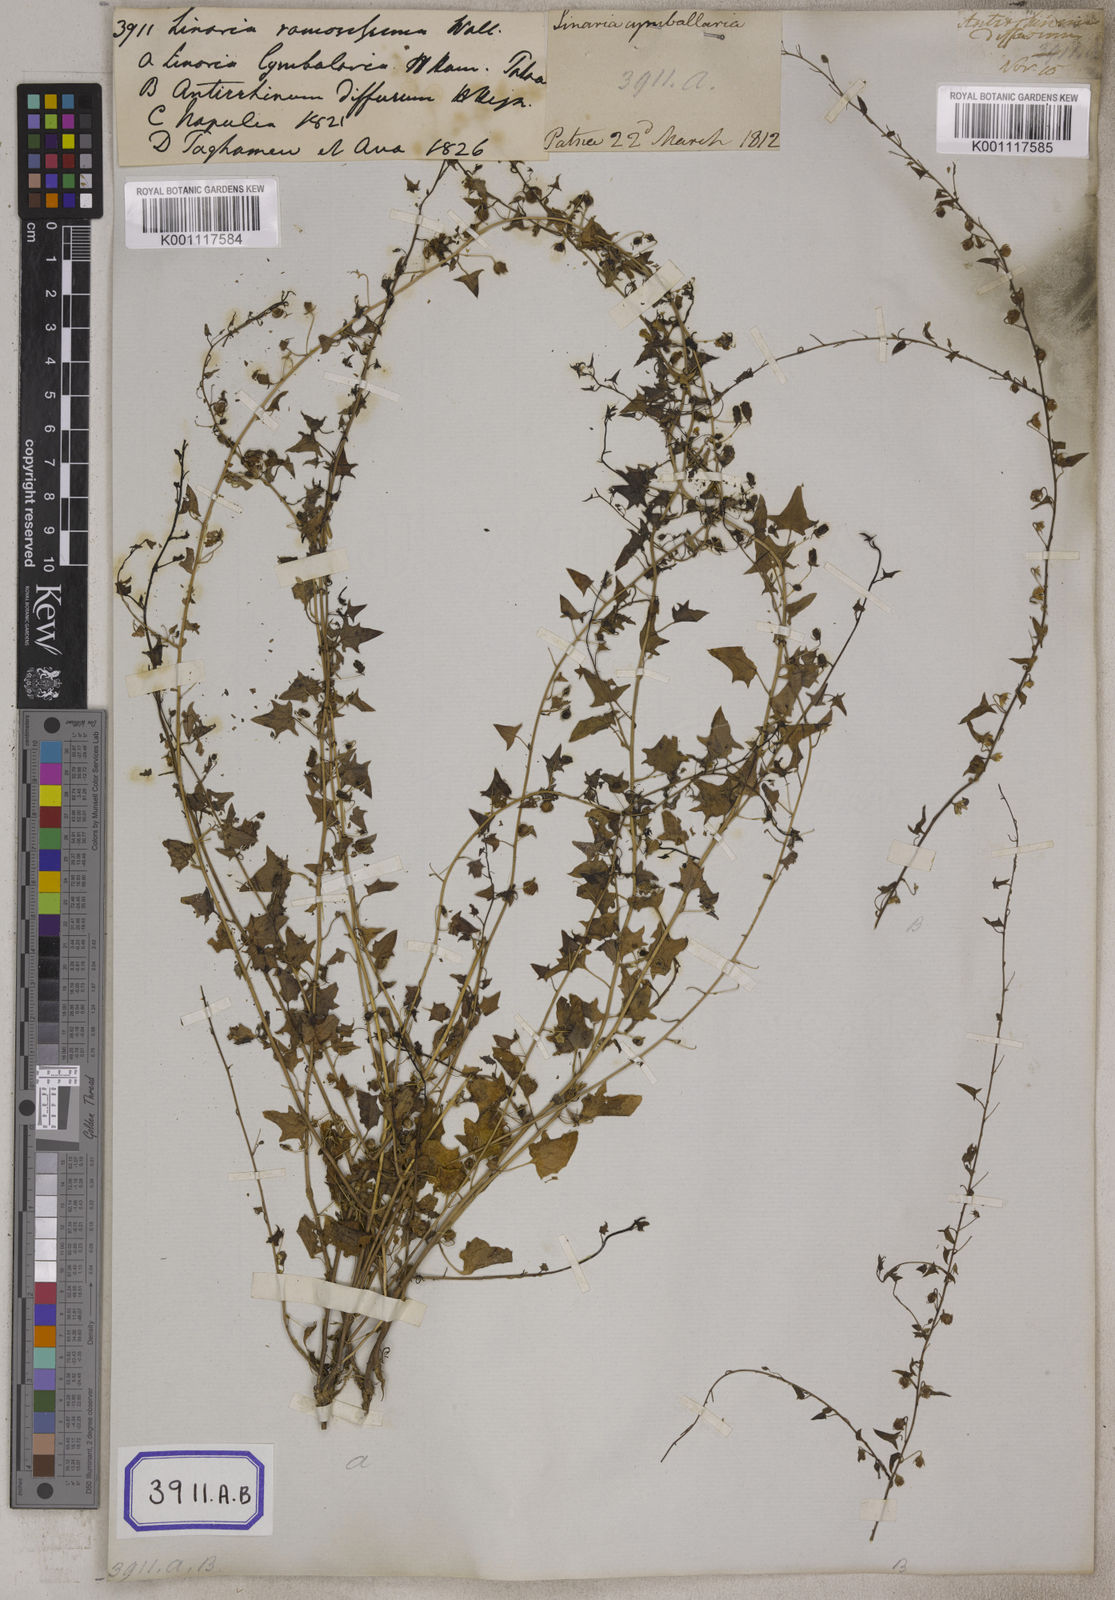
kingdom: Plantae
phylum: Tracheophyta
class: Magnoliopsida
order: Lamiales
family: Plantaginaceae
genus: Nanorrhinum
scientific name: Nanorrhinum ramosissimum
